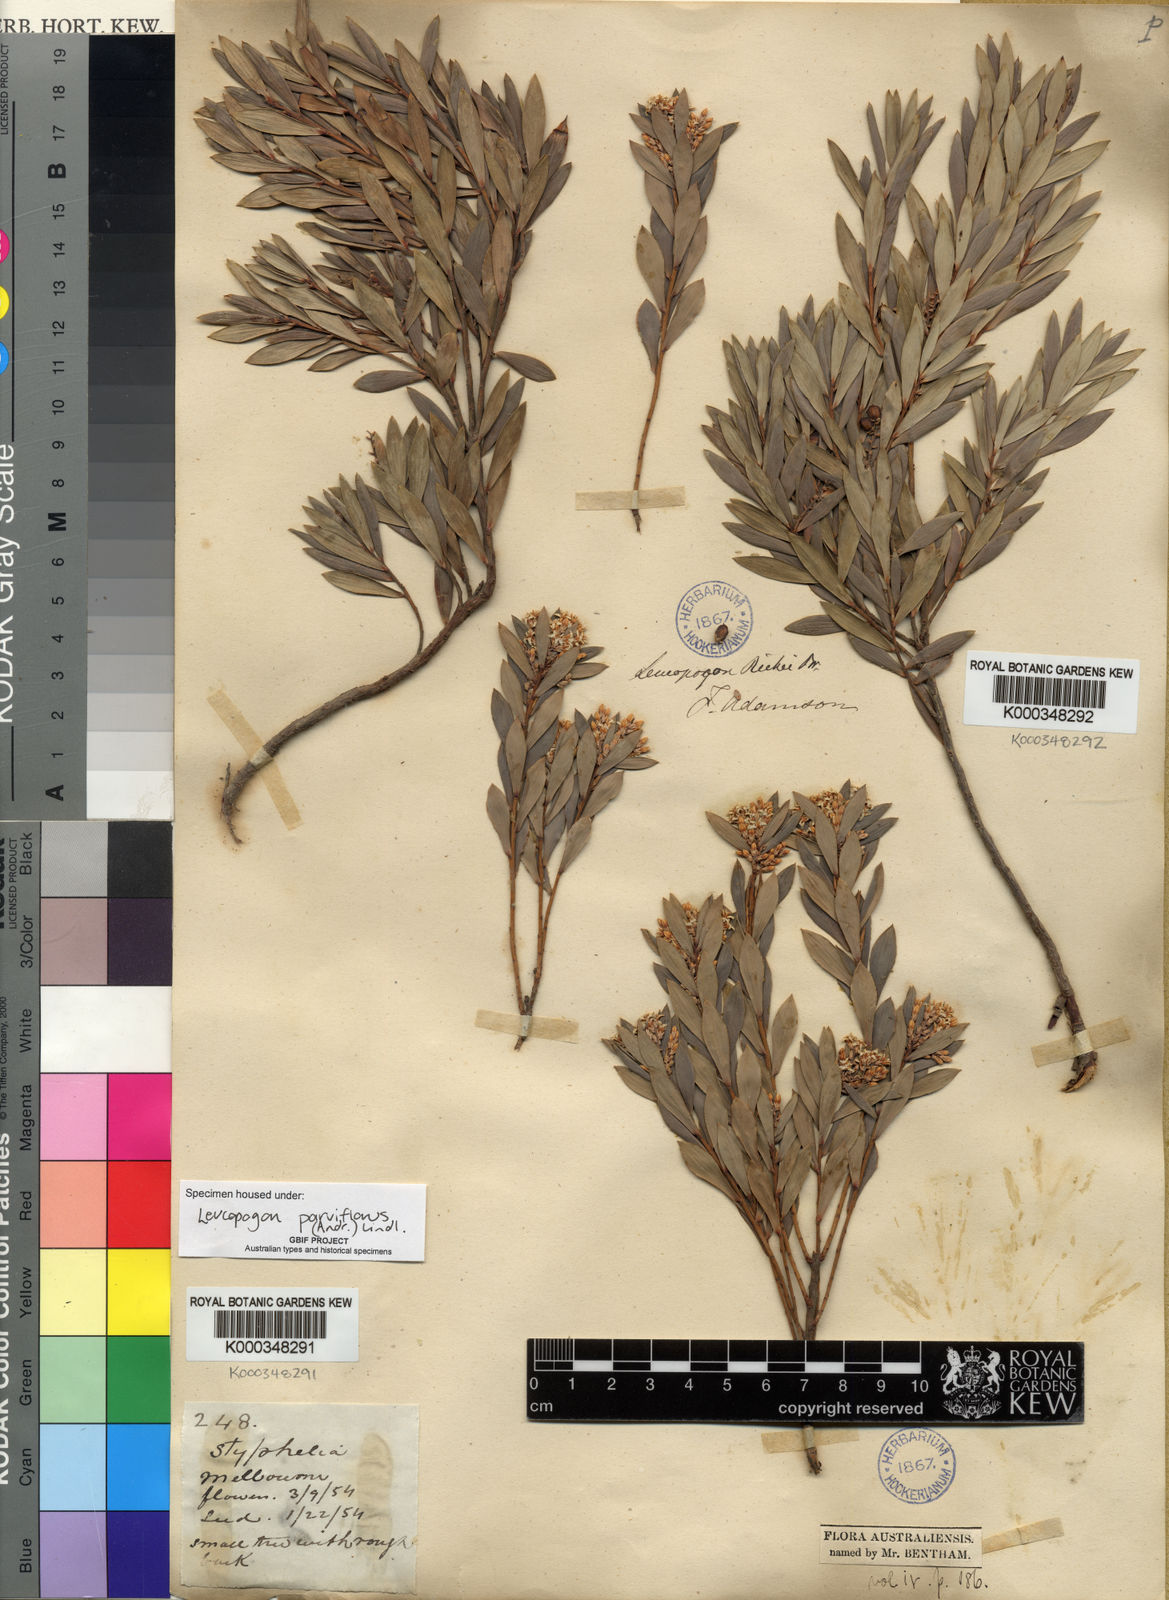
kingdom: Plantae
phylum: Tracheophyta
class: Magnoliopsida
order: Ericales
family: Ericaceae
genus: Leptecophylla
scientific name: Leptecophylla parvifolia
